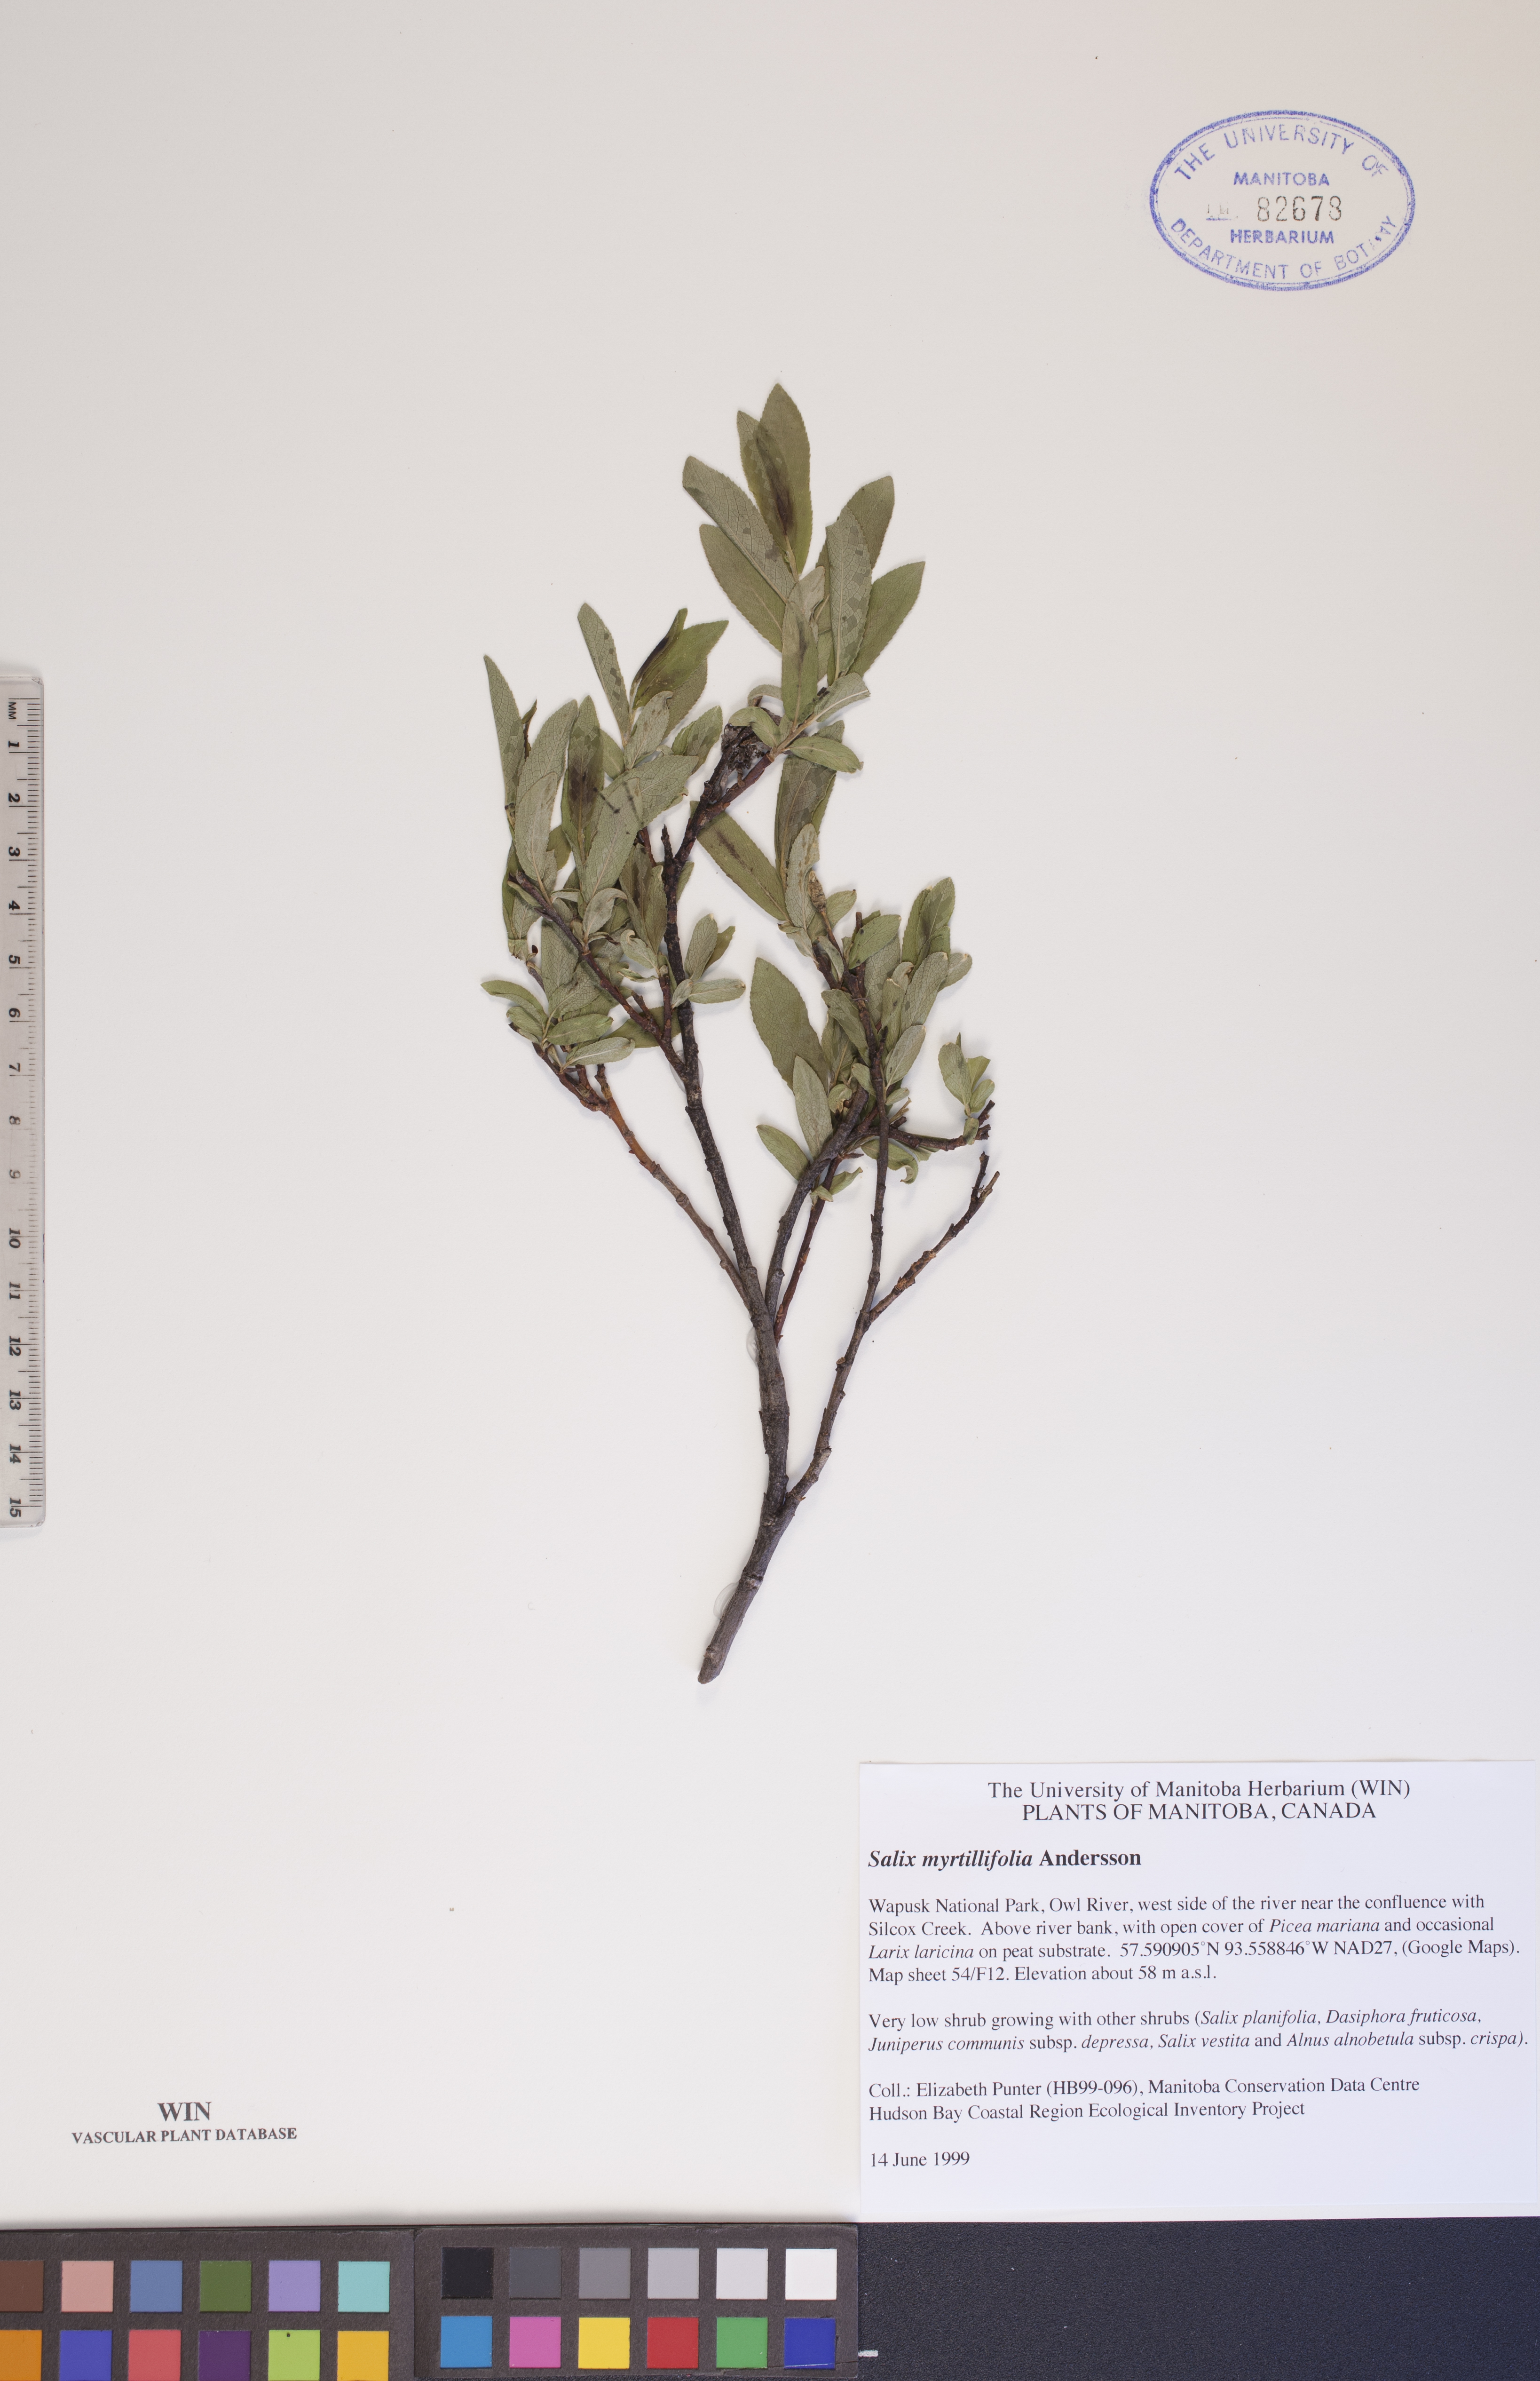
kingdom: Plantae
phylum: Tracheophyta
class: Magnoliopsida
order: Malpighiales
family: Salicaceae
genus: Salix
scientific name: Salix myrtillifolia
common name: Bilberry willow
